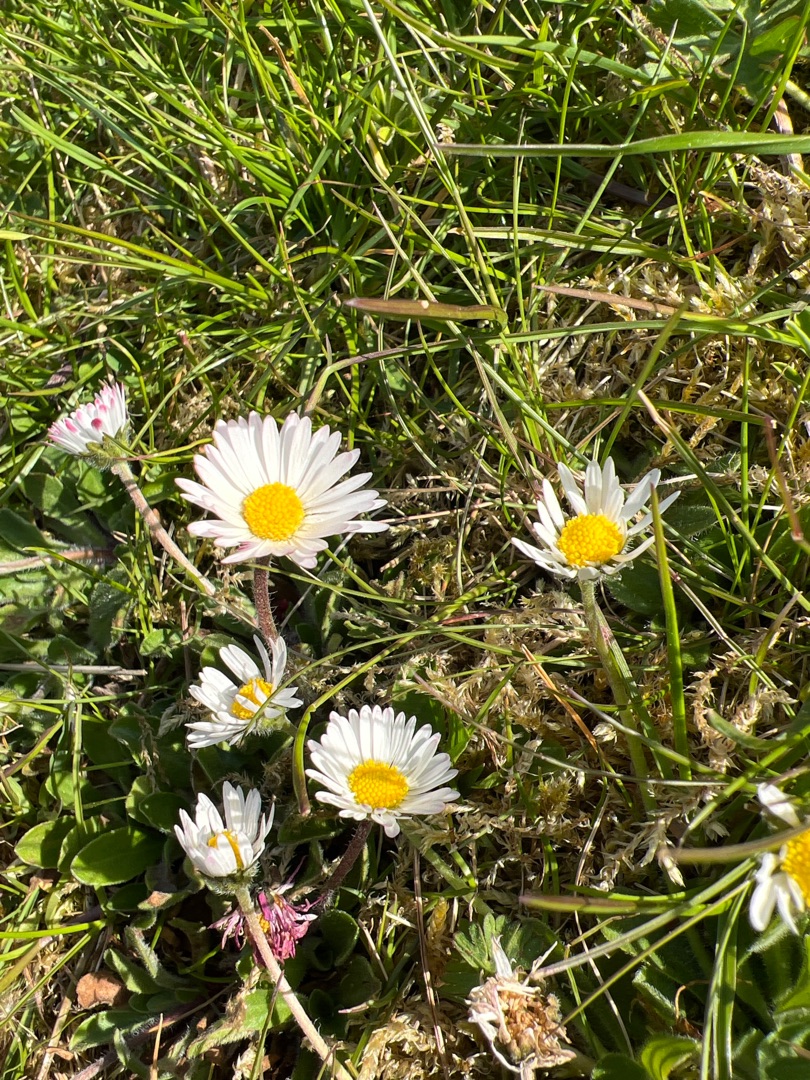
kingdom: Plantae
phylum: Tracheophyta
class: Magnoliopsida
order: Asterales
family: Asteraceae
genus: Bellis
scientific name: Bellis perennis
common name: Tusindfryd
